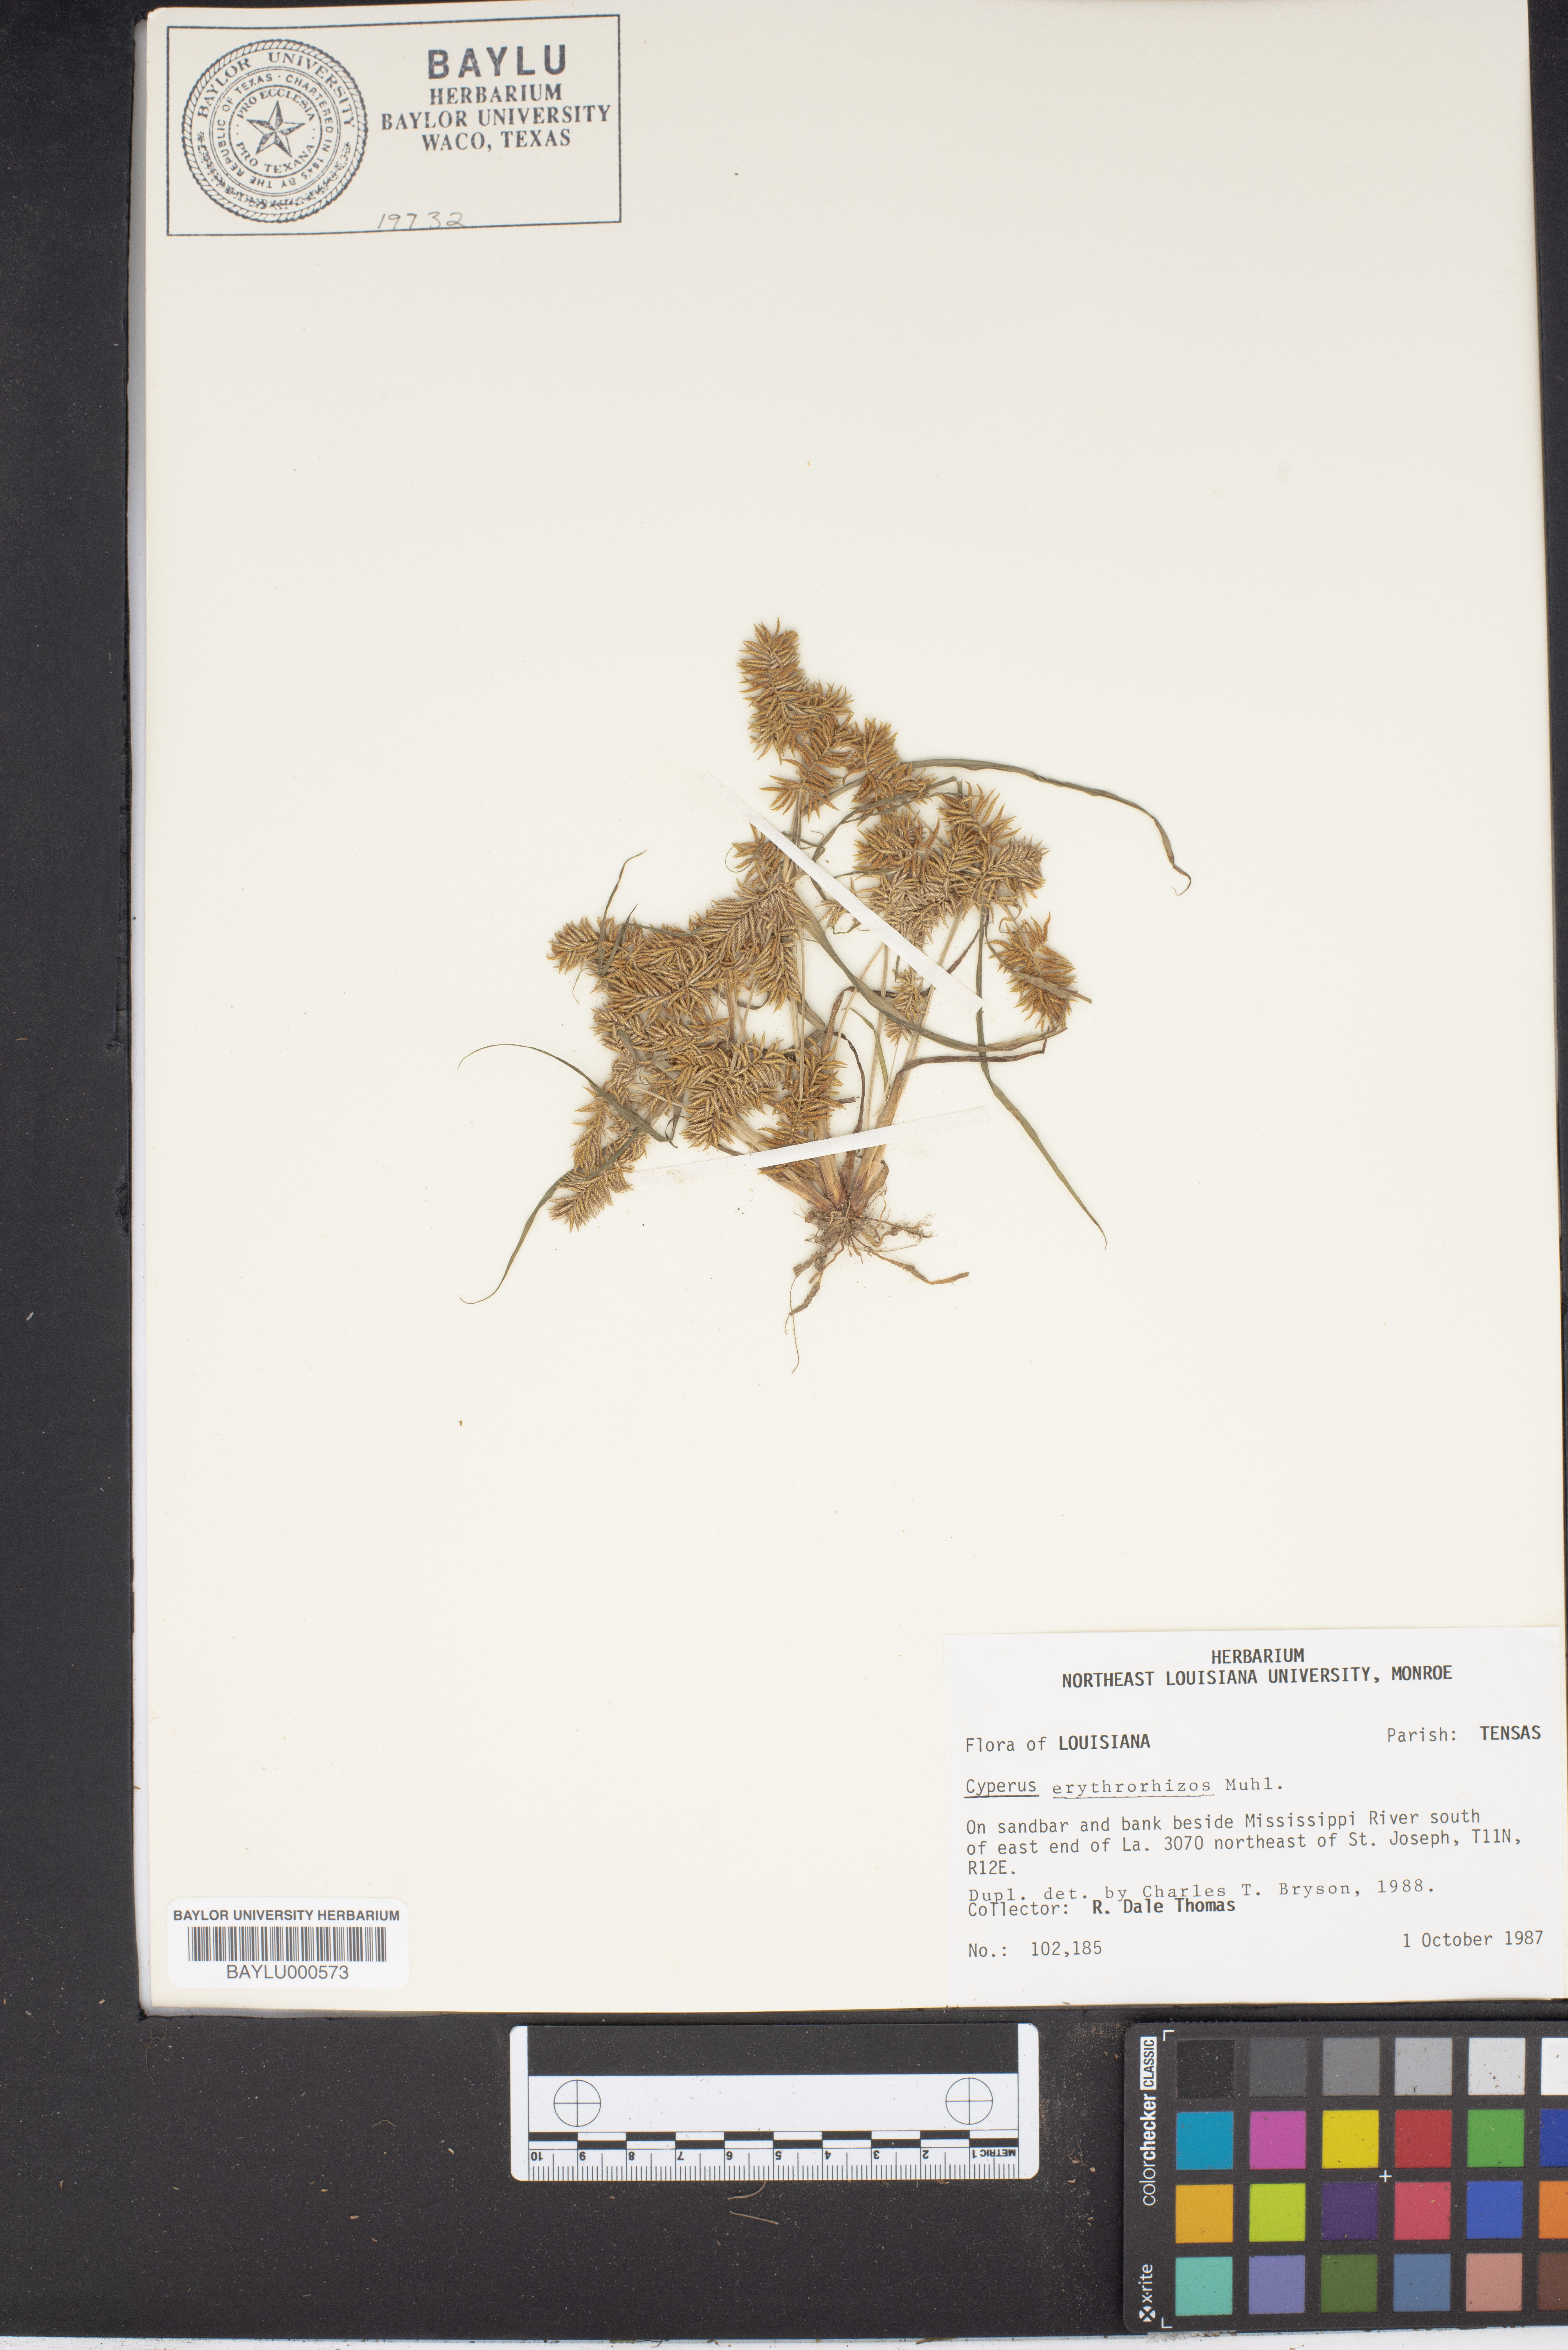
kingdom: Plantae
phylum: Tracheophyta
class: Liliopsida
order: Poales
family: Cyperaceae
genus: Cyperus
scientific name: Cyperus erythrorhizos
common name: Red-root flat sedge
